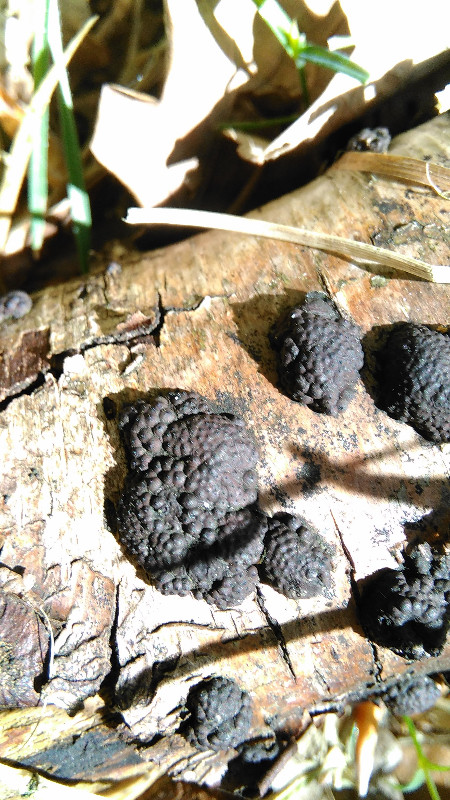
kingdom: Fungi
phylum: Ascomycota
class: Sordariomycetes
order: Xylariales
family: Hypoxylaceae
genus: Jackrogersella
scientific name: Jackrogersella multiformis
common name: foranderlig kulbær
